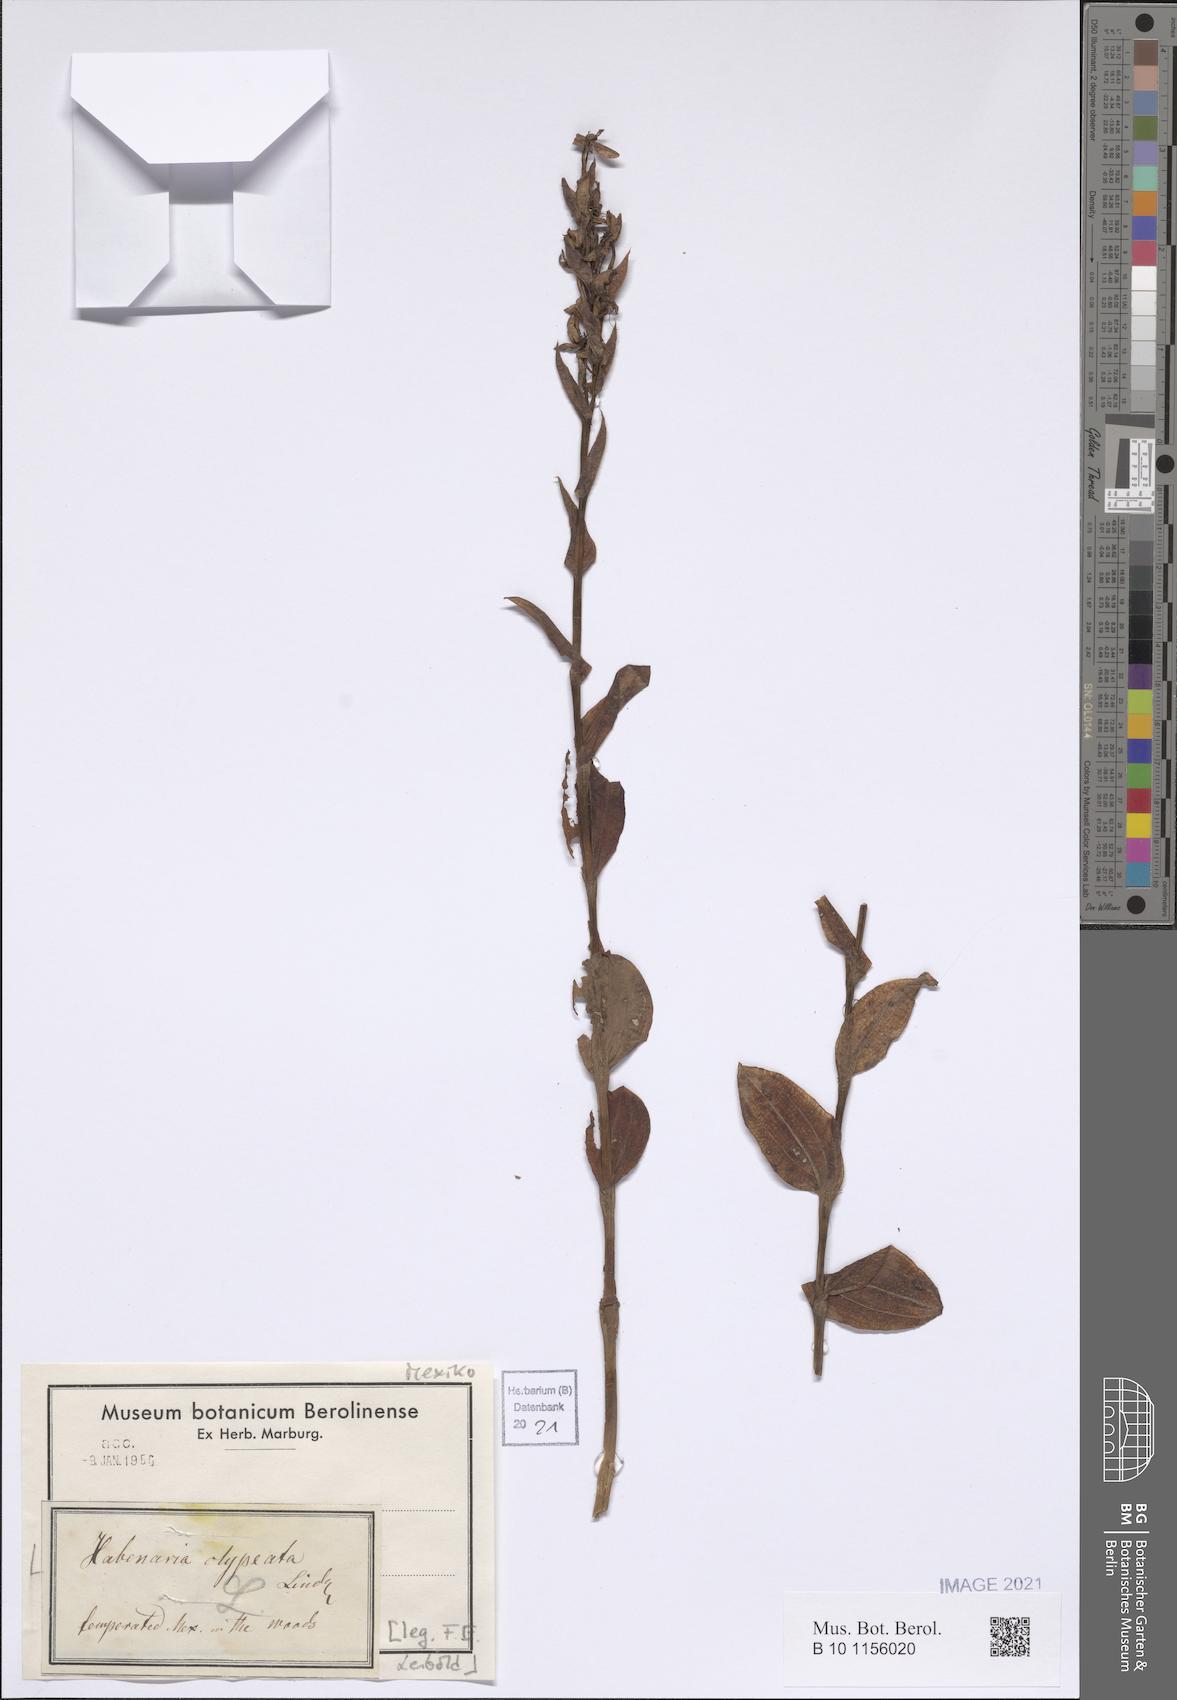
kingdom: Plantae
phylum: Tracheophyta
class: Liliopsida
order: Asparagales
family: Orchidaceae
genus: Habenaria
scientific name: Habenaria clypeata
